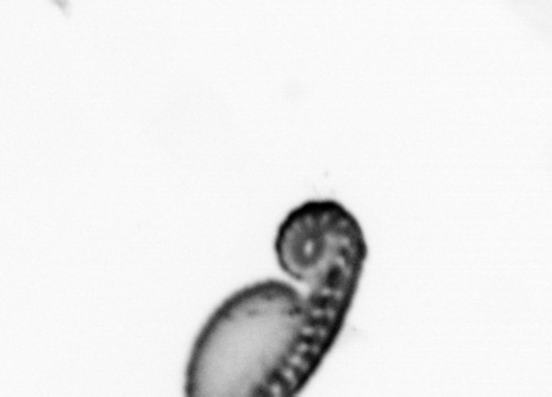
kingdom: Animalia
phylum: Annelida
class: Polychaeta
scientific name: Polychaeta
